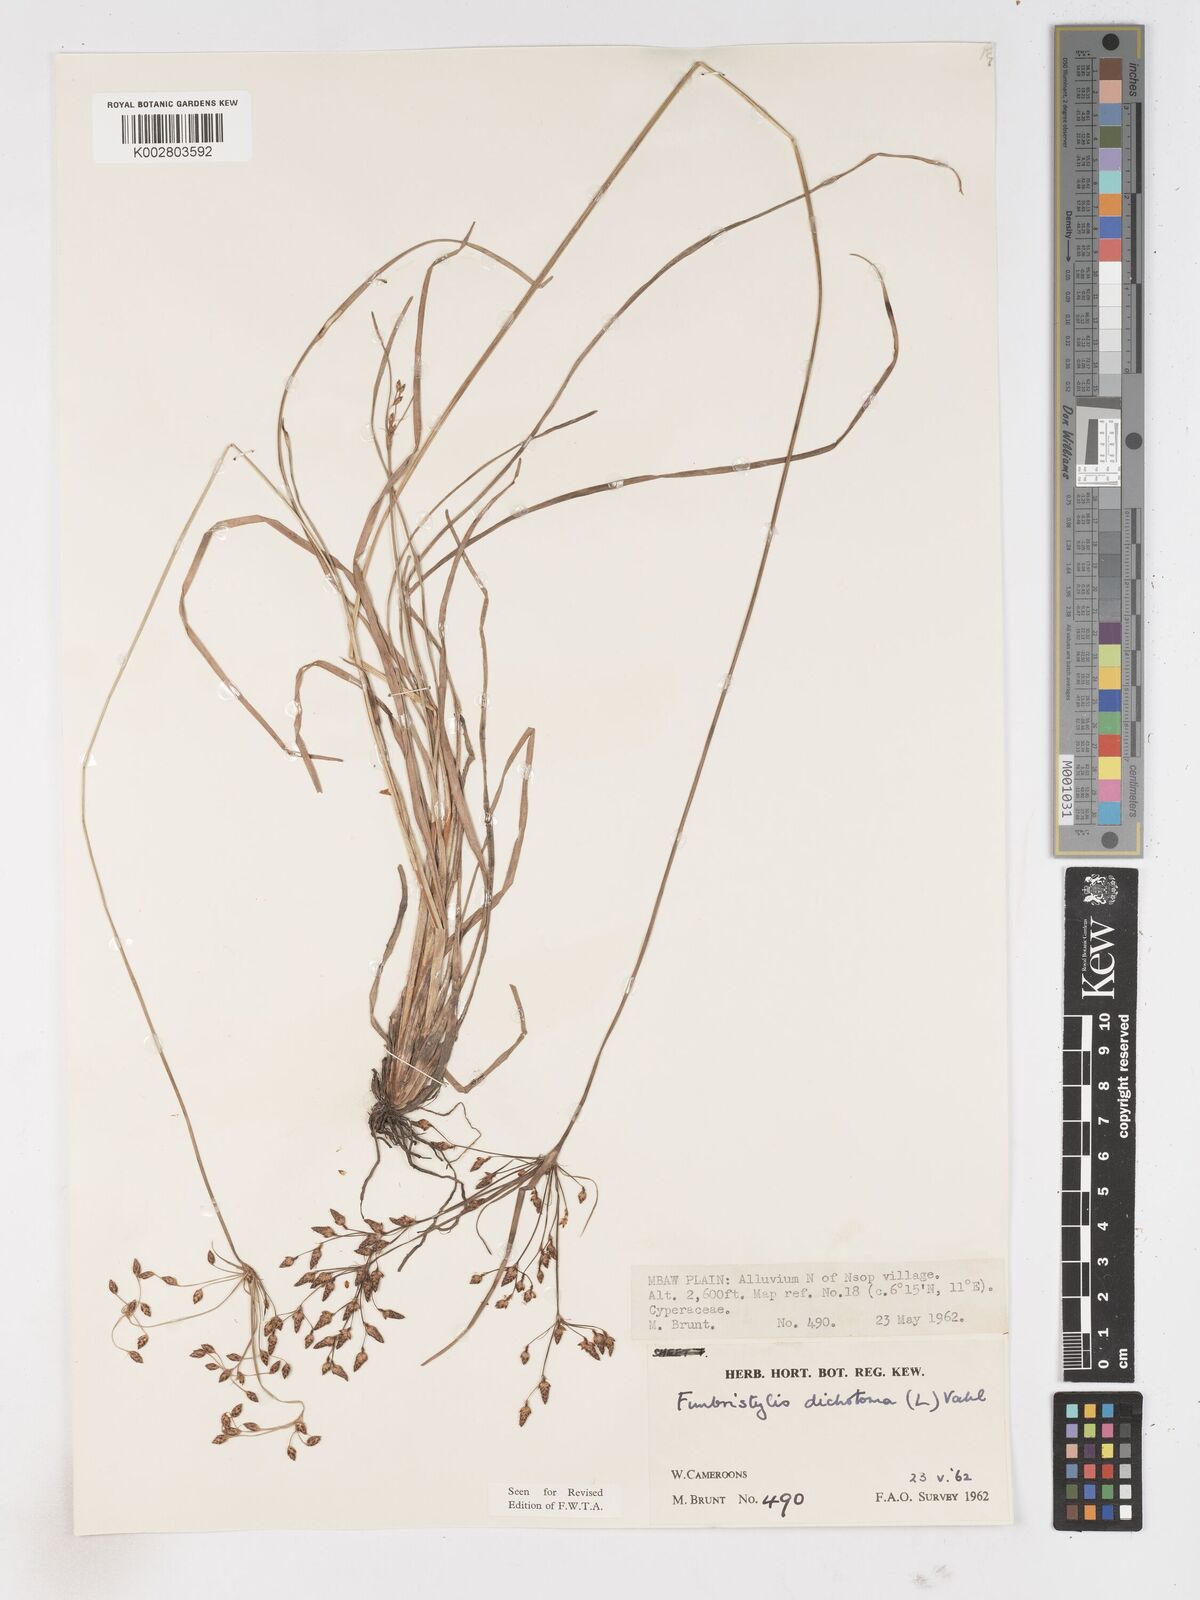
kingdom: Plantae
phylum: Tracheophyta
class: Liliopsida
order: Poales
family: Cyperaceae
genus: Fimbristylis
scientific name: Fimbristylis dichotoma
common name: Forked fimbry
